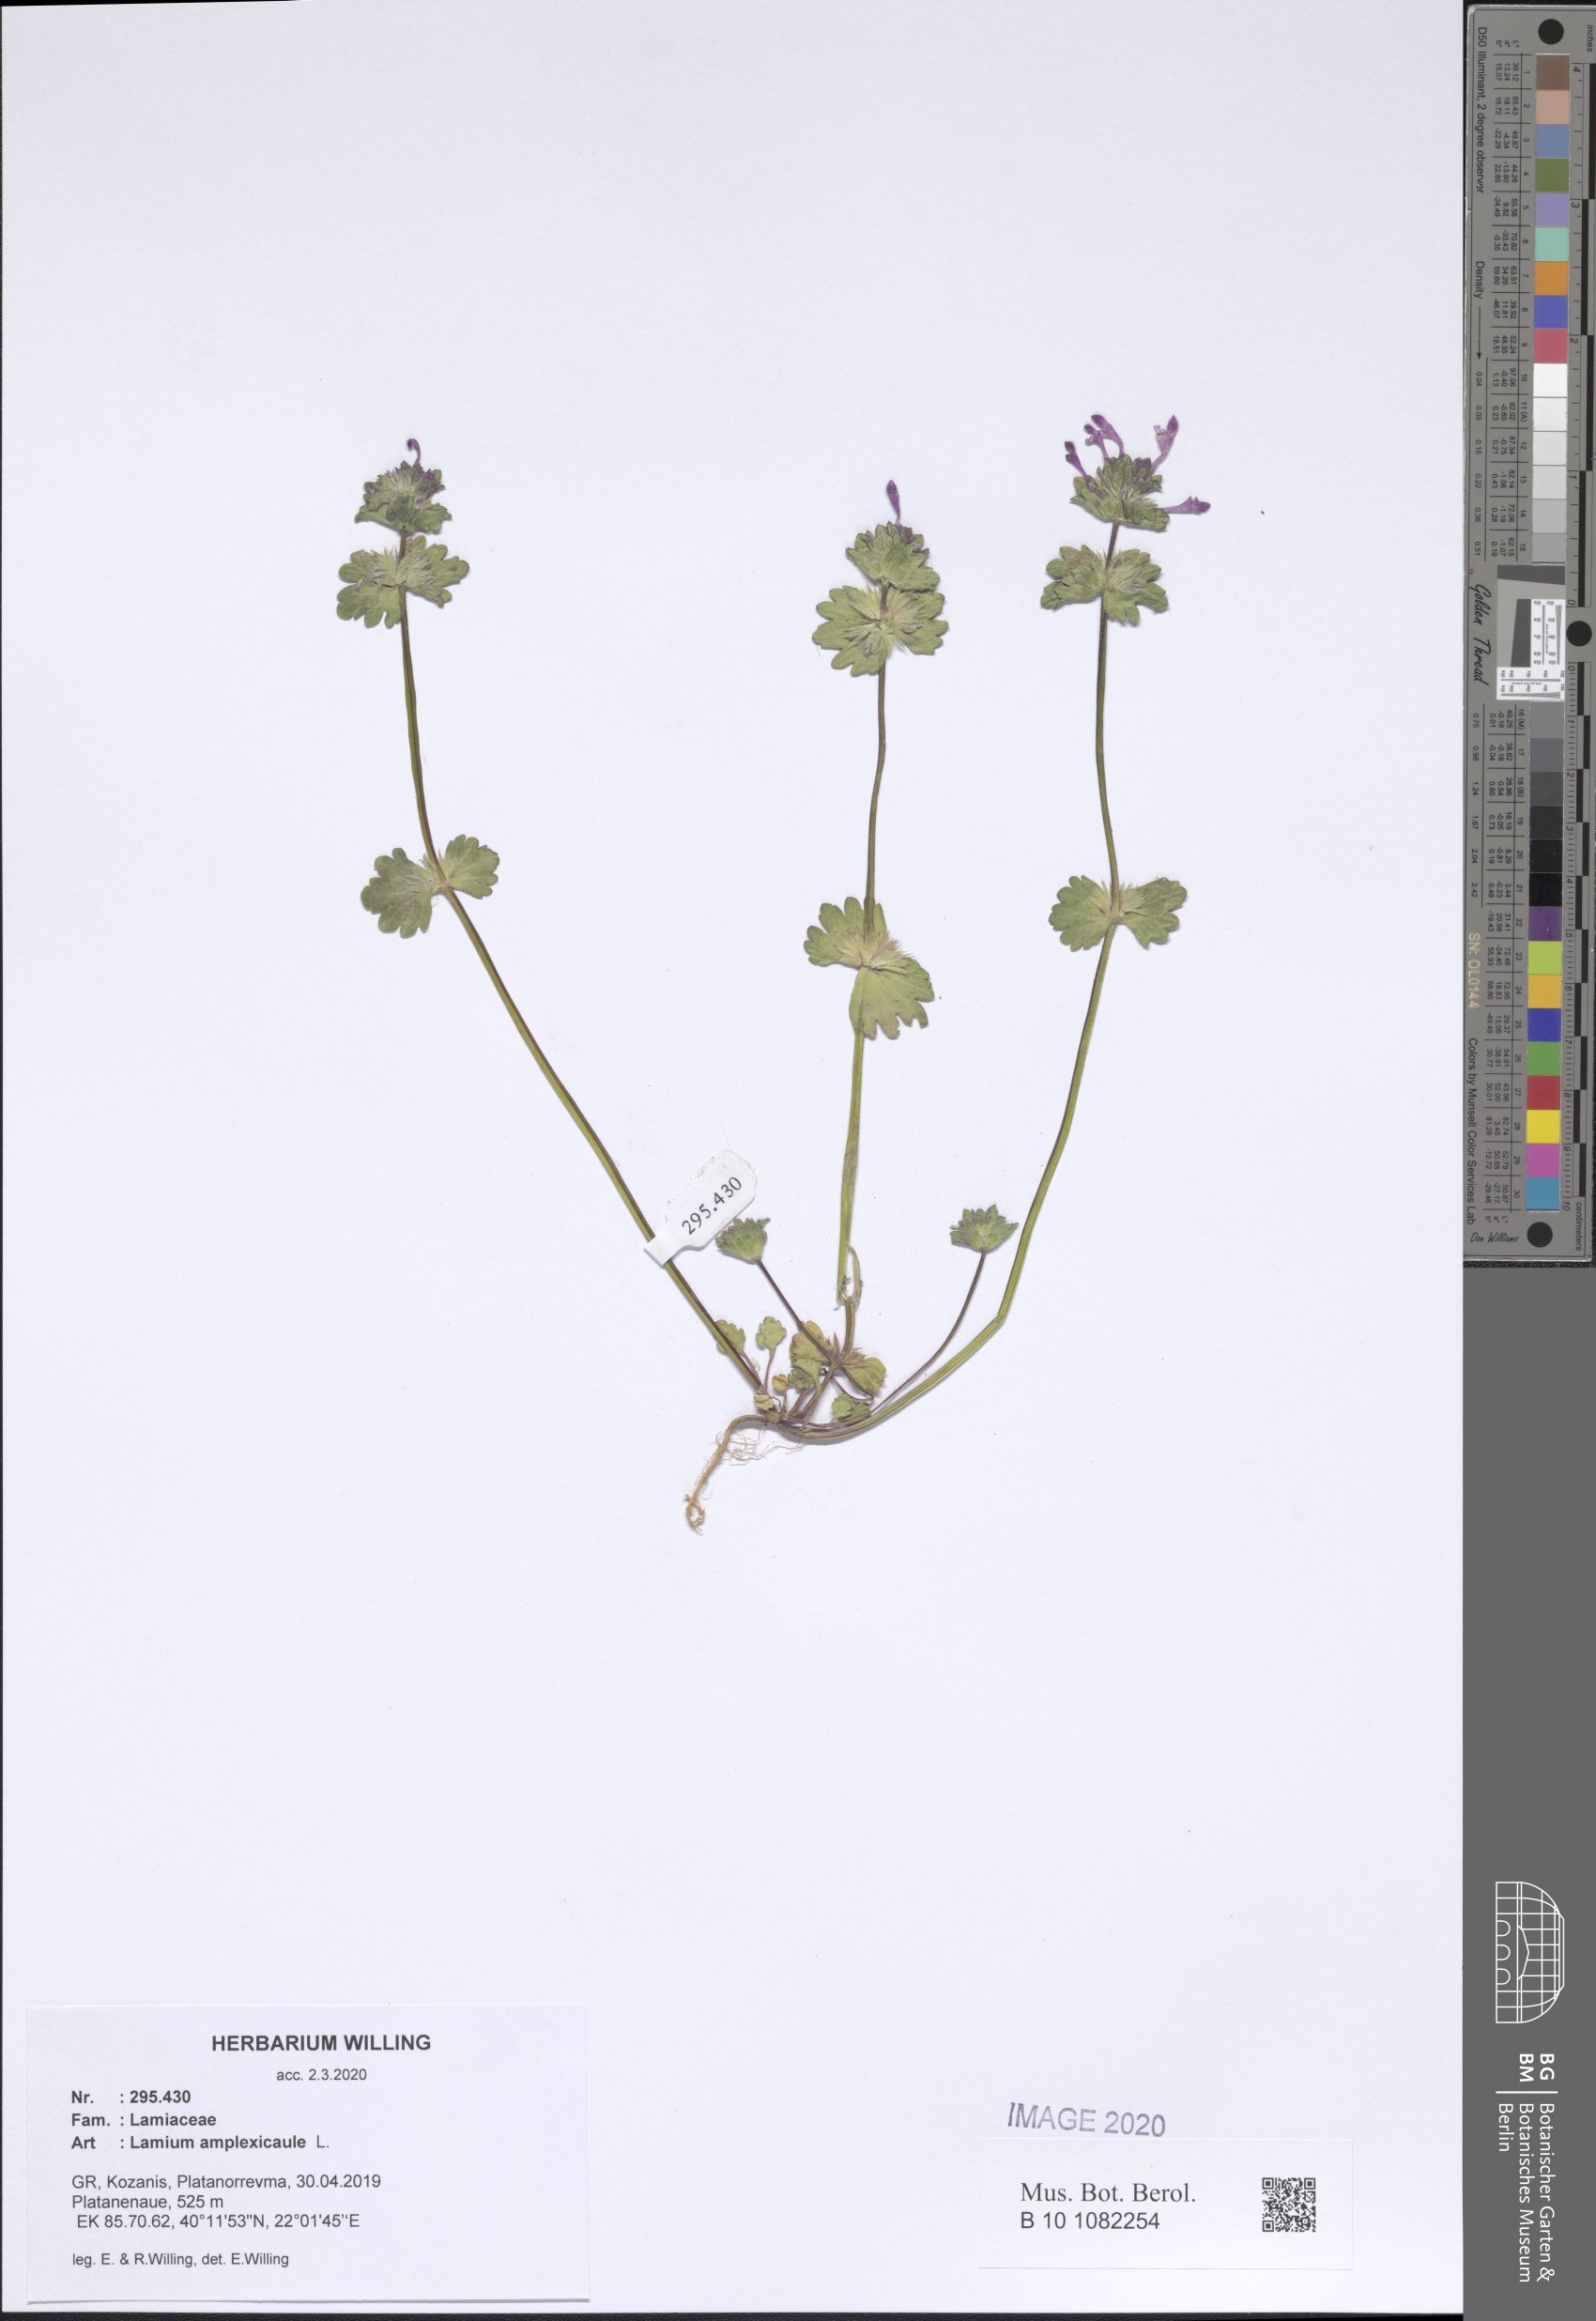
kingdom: Plantae
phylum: Tracheophyta
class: Magnoliopsida
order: Lamiales
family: Lamiaceae
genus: Lamium
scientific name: Lamium amplexicaule
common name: Henbit dead-nettle
